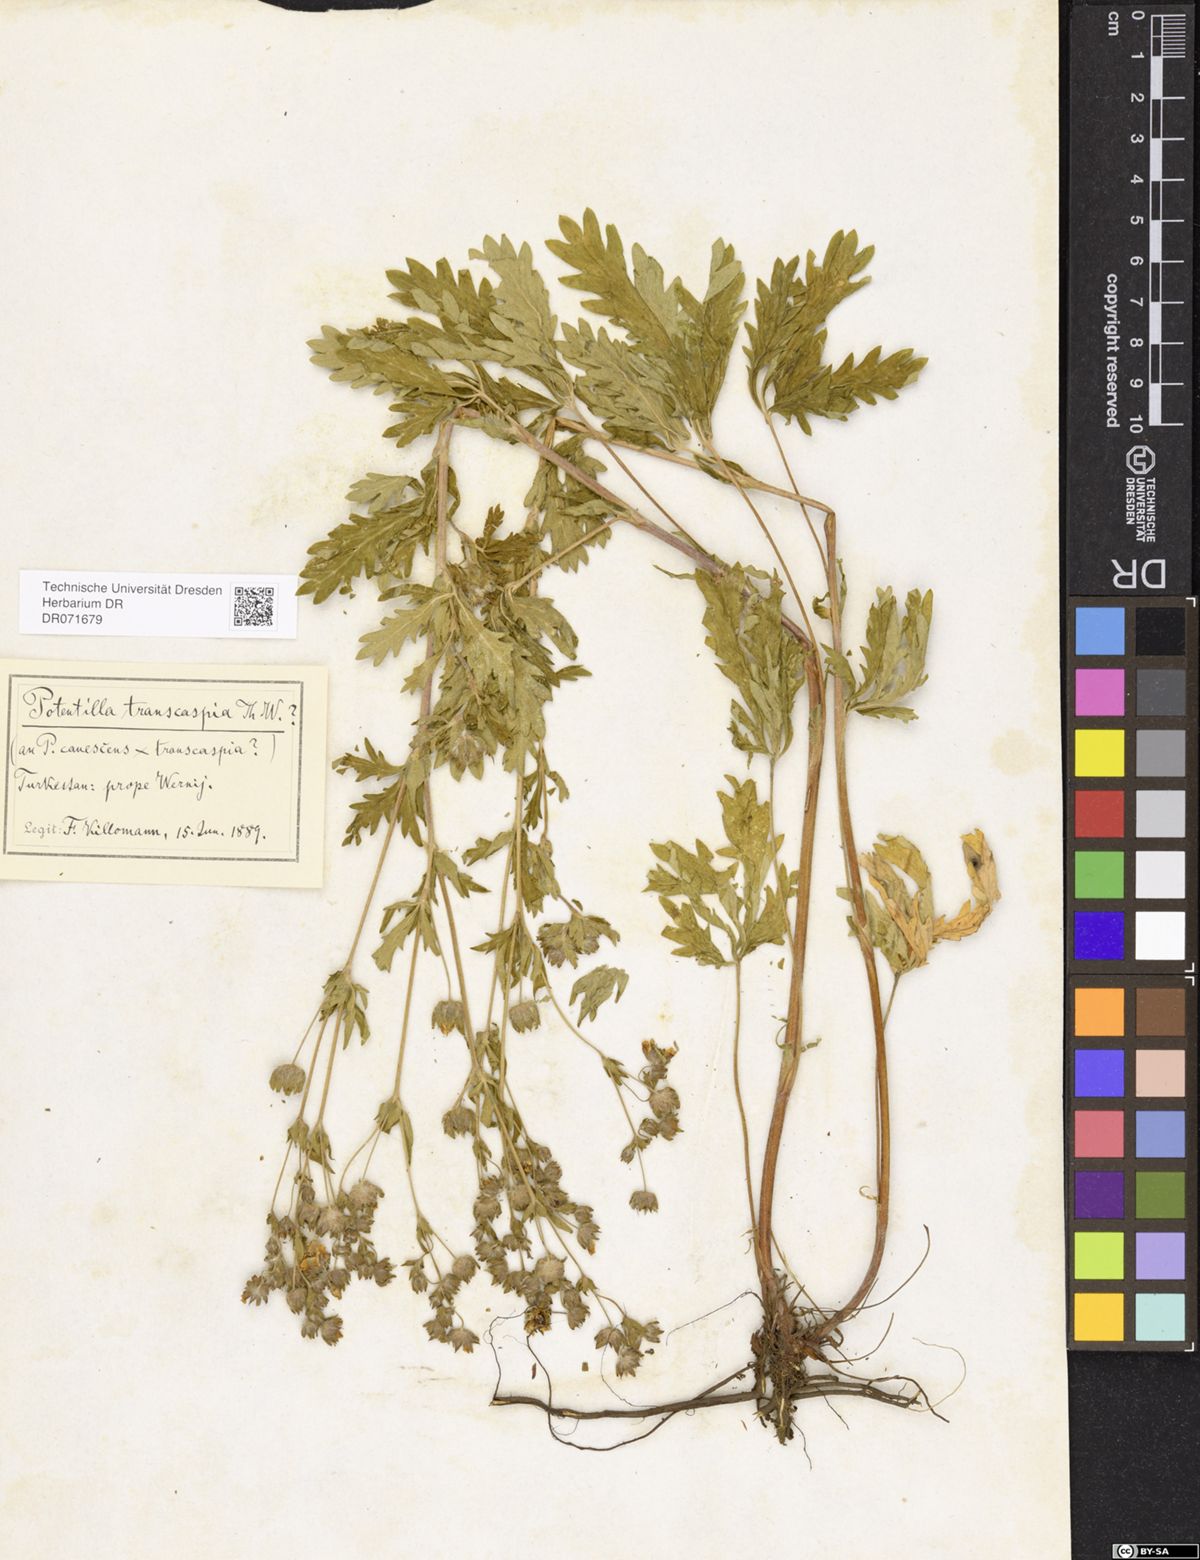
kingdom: Plantae
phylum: Tracheophyta
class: Magnoliopsida
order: Rosales
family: Rosaceae
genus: Potentilla
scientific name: Potentilla pedata
